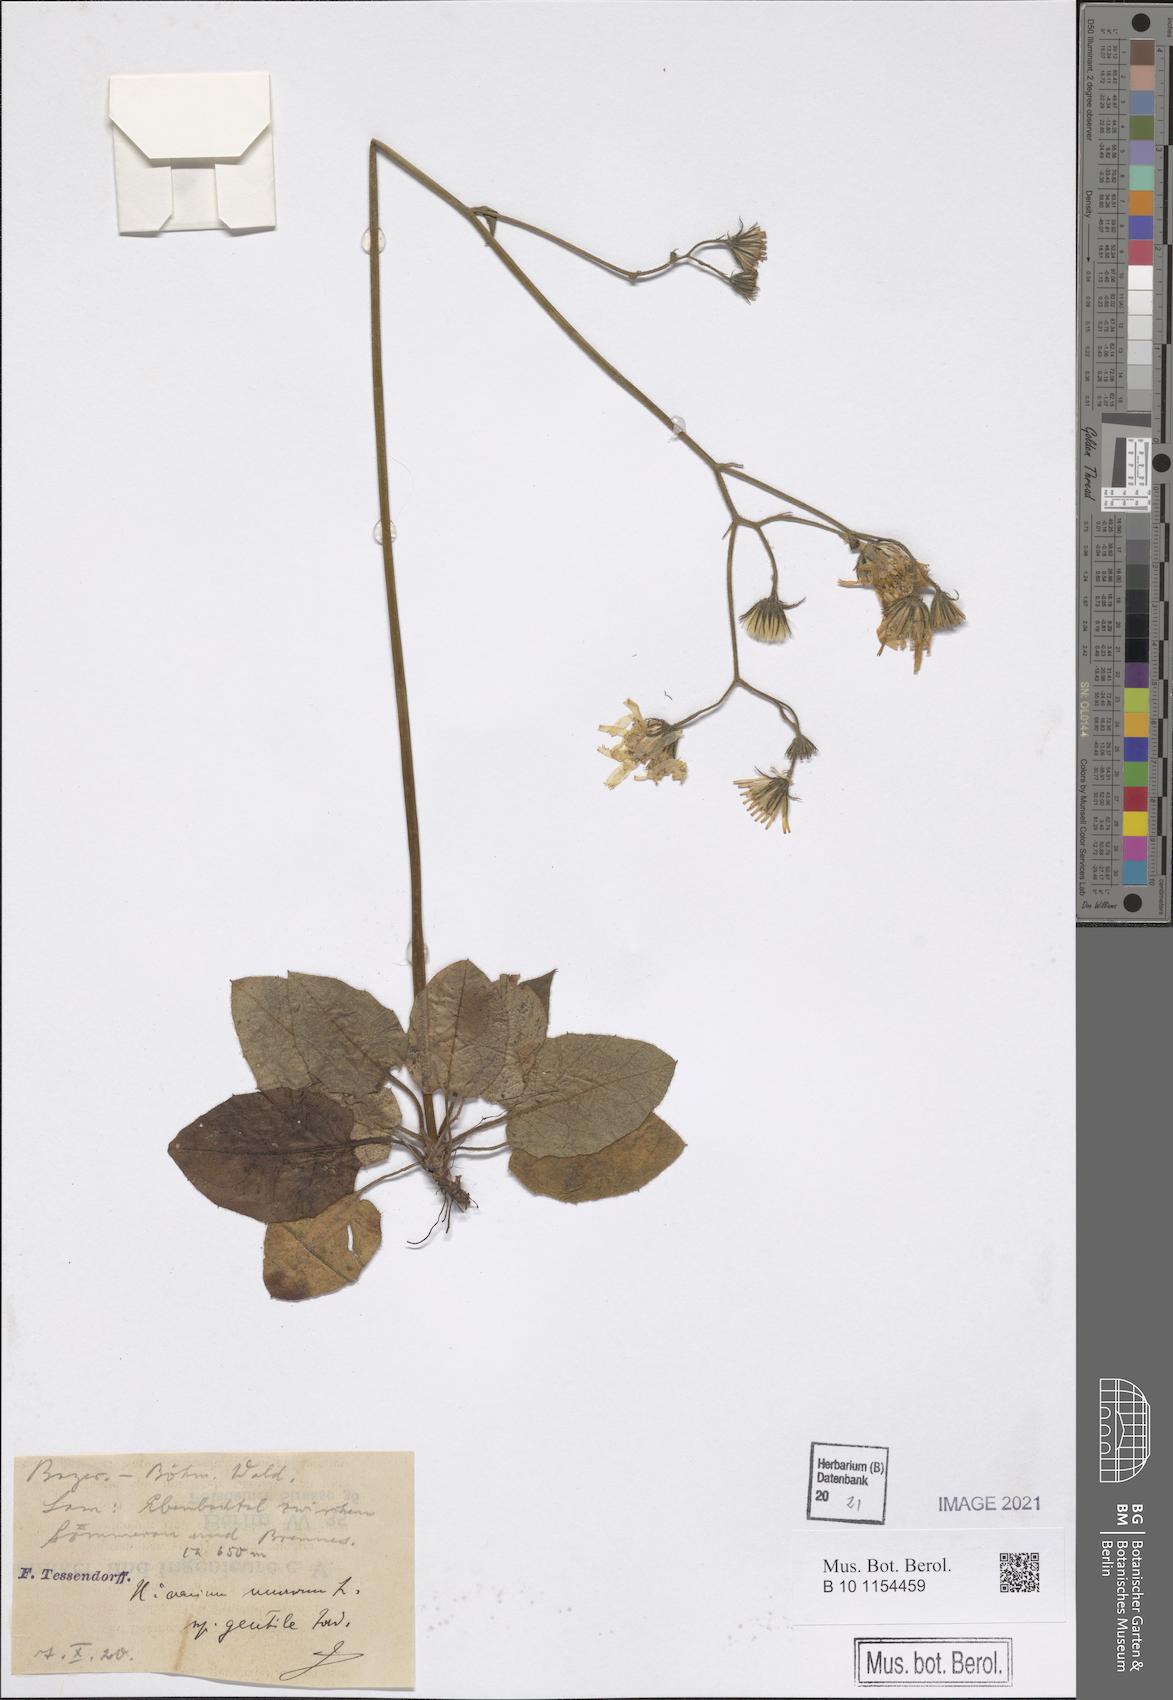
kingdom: Plantae
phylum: Tracheophyta
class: Magnoliopsida
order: Asterales
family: Asteraceae
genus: Hieracium
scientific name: Hieracium murorum
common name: Wall hawkweed
